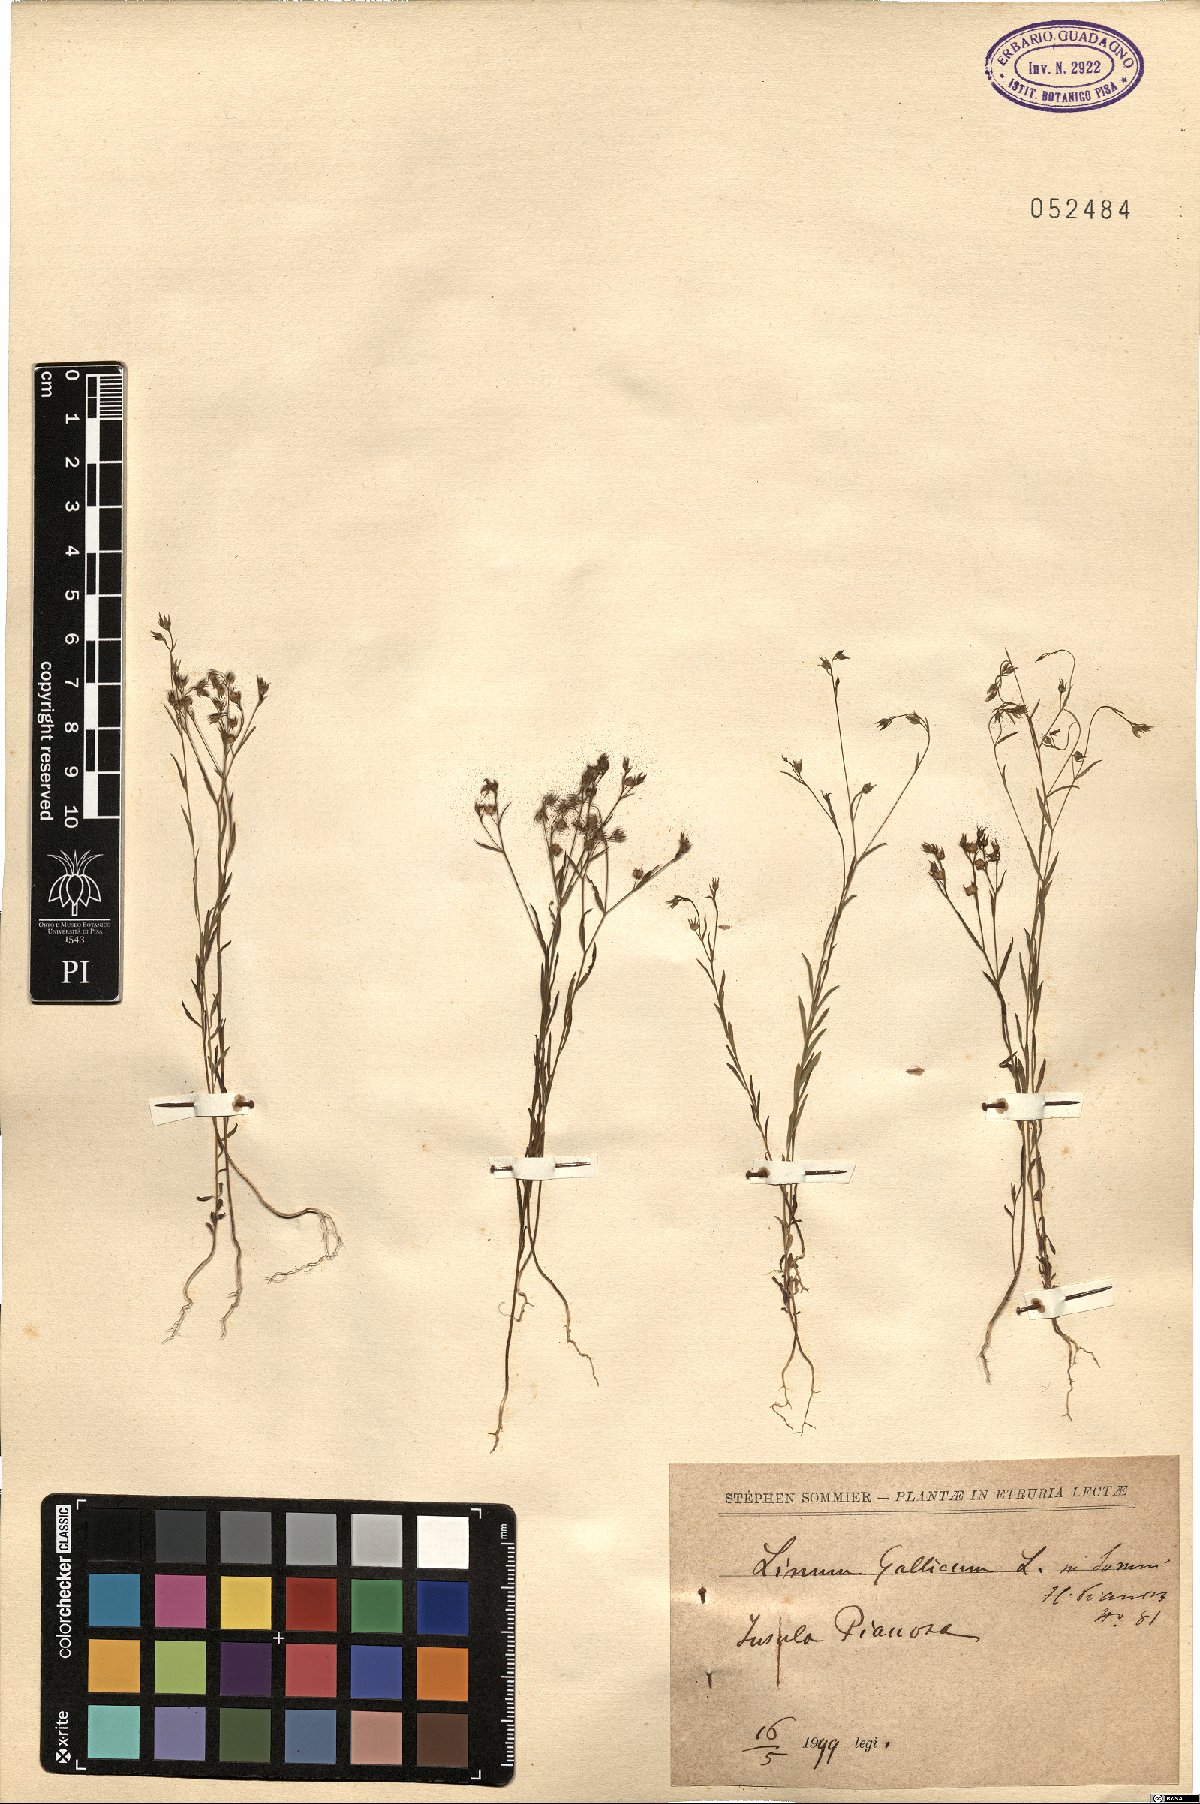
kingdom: Plantae
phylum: Tracheophyta
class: Magnoliopsida
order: Malpighiales
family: Linaceae
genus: Linum
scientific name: Linum trigynum
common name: French flax
